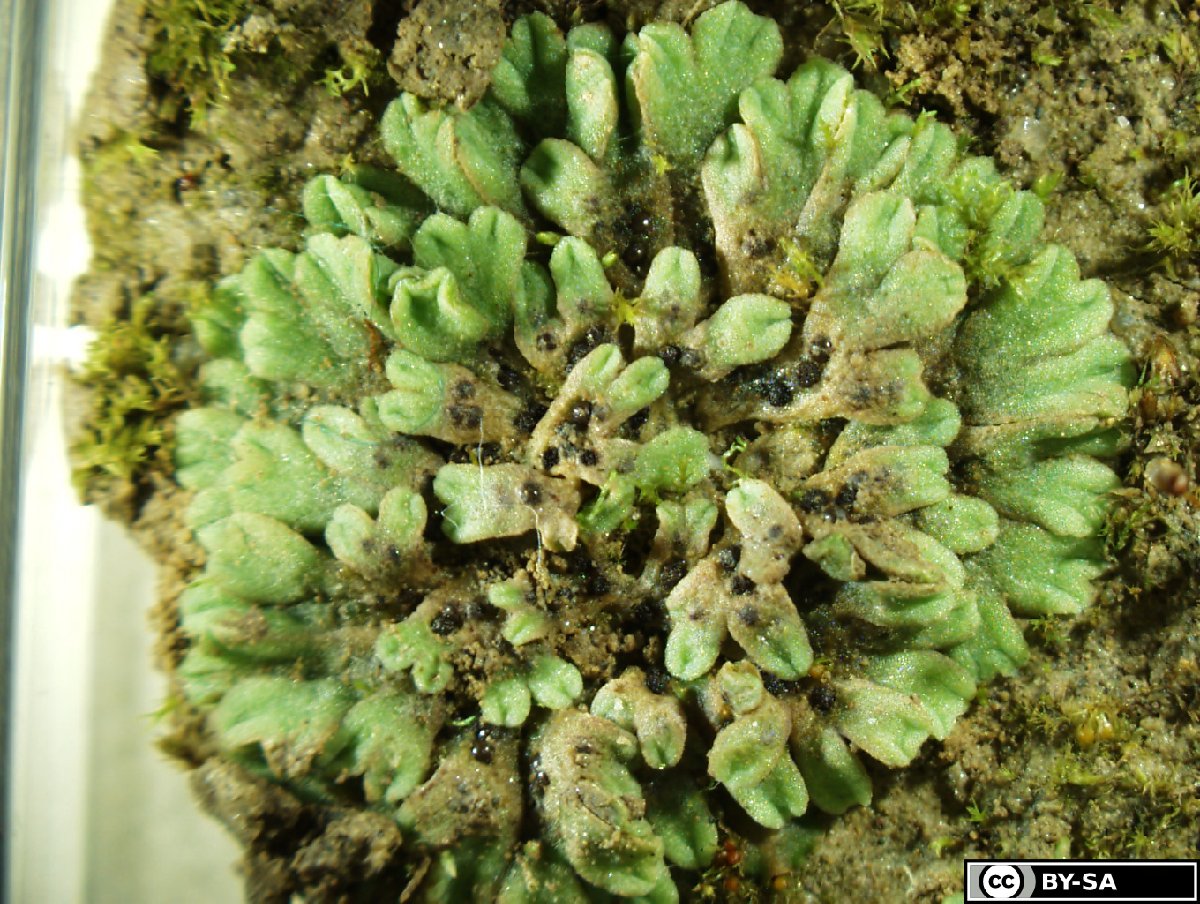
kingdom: Plantae
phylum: Marchantiophyta
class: Marchantiopsida
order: Marchantiales
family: Ricciaceae
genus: Riccia
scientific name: Riccia bifurca
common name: Lizard crystalwort
